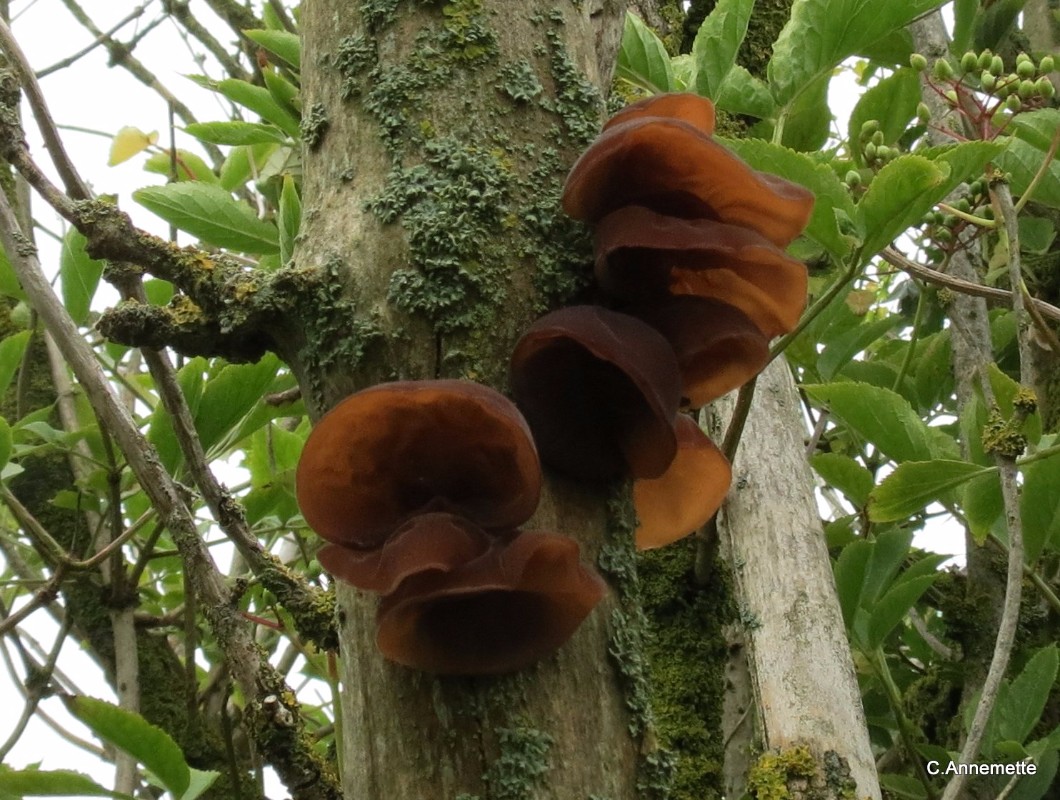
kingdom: Fungi
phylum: Basidiomycota
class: Agaricomycetes
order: Auriculariales
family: Auriculariaceae
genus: Auricularia
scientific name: Auricularia auricula-judae
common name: almindelig judasøre
